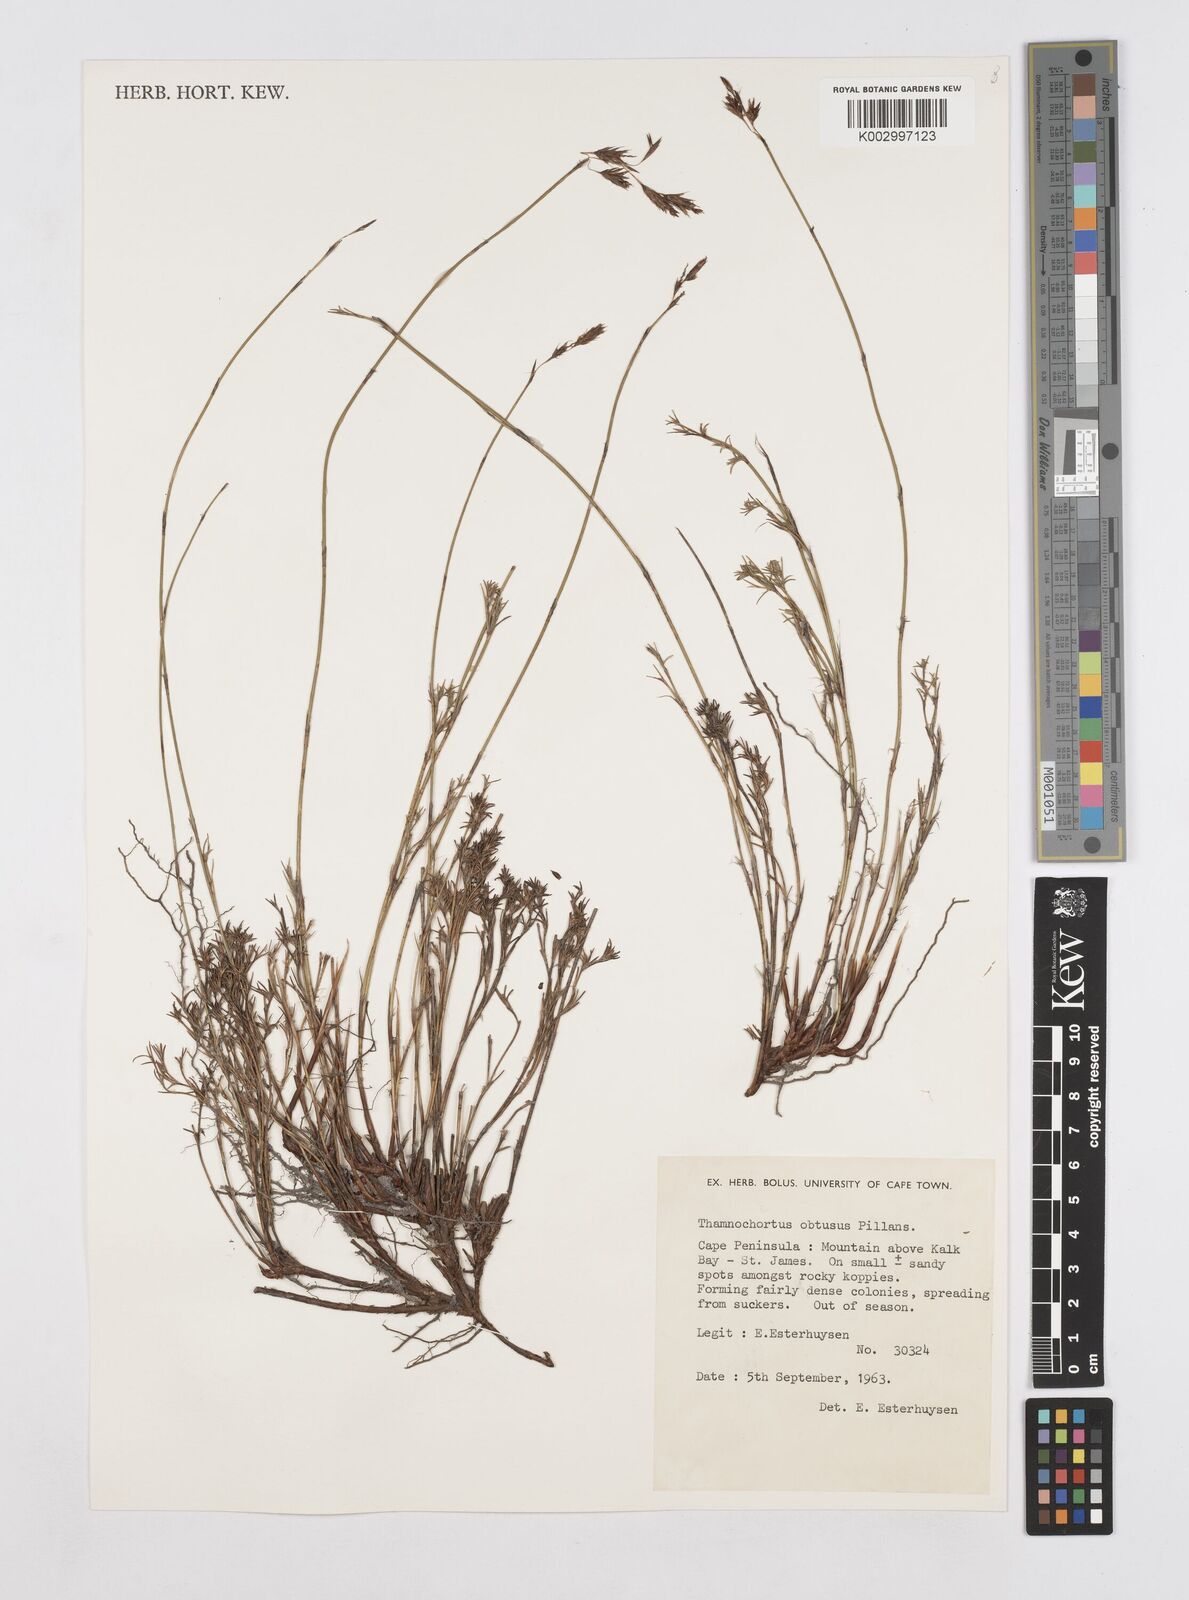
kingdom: Plantae
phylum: Tracheophyta
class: Liliopsida
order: Poales
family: Restionaceae
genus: Thamnochortus
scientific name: Thamnochortus obtusus
